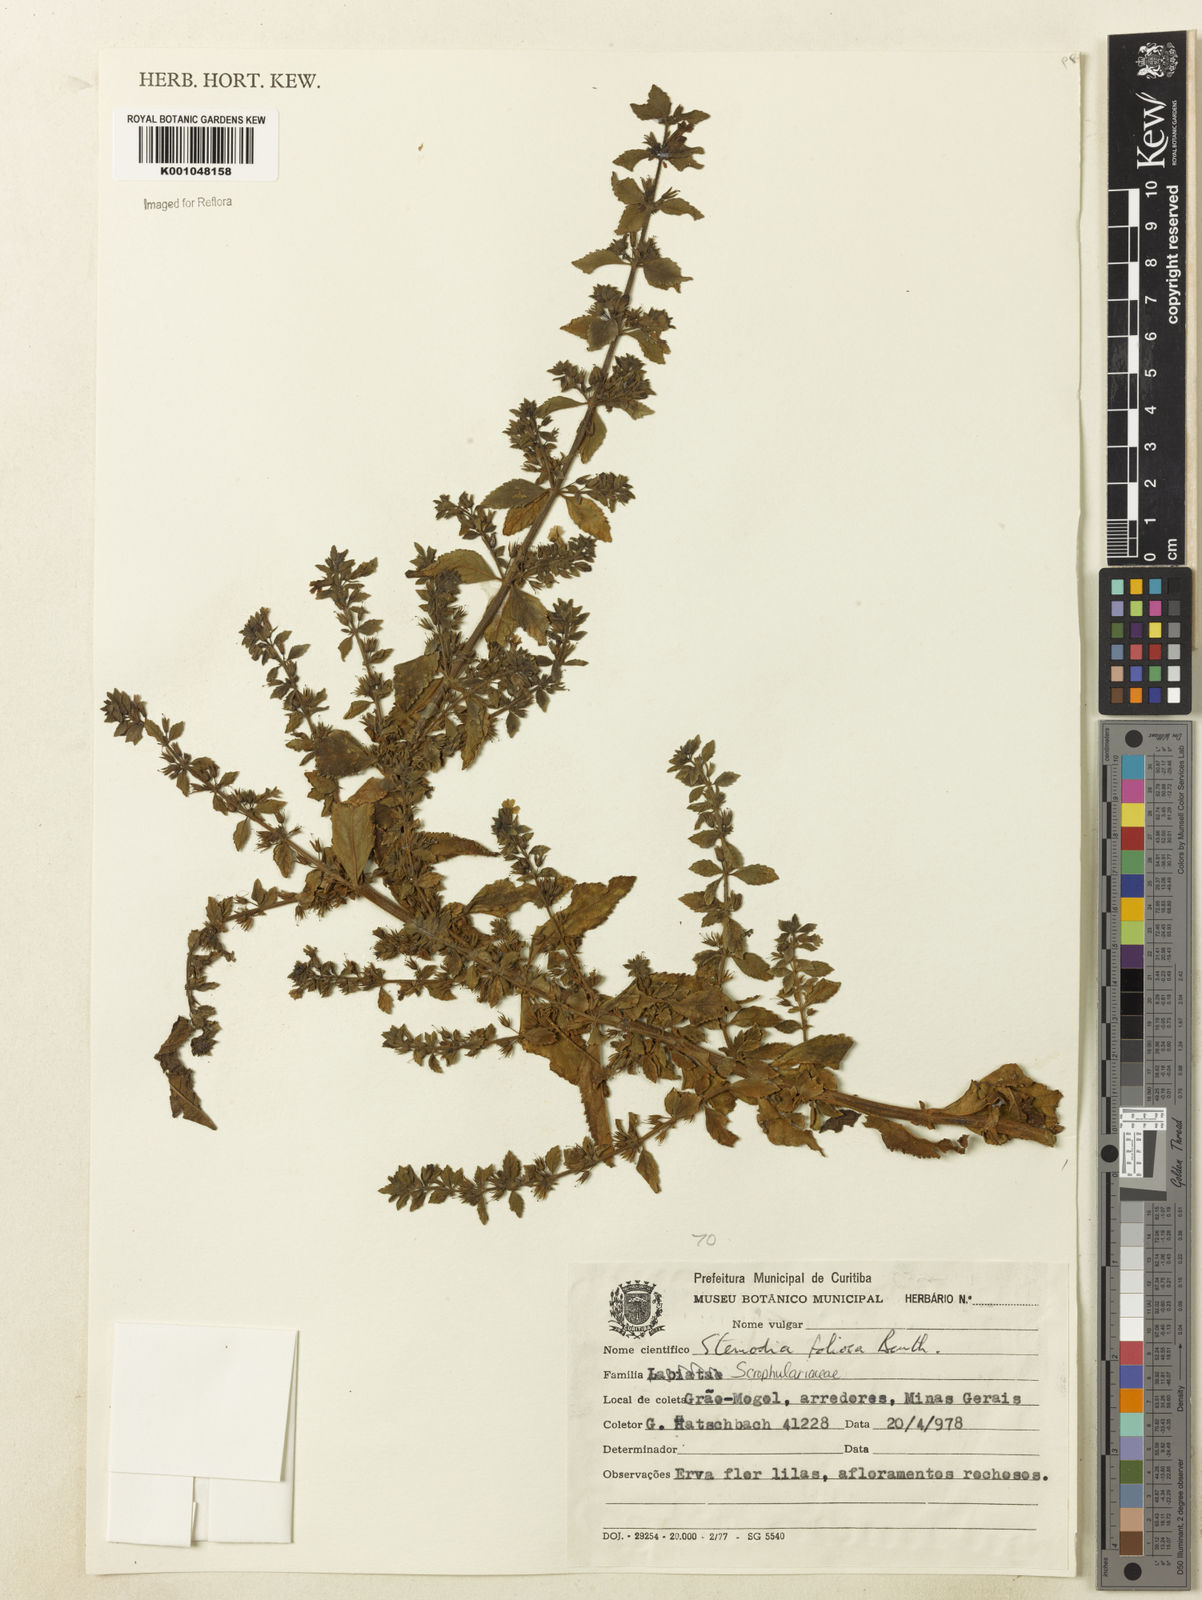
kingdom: Plantae
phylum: Tracheophyta
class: Magnoliopsida
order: Lamiales
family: Plantaginaceae
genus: Stemodia
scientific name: Stemodia foliosa
